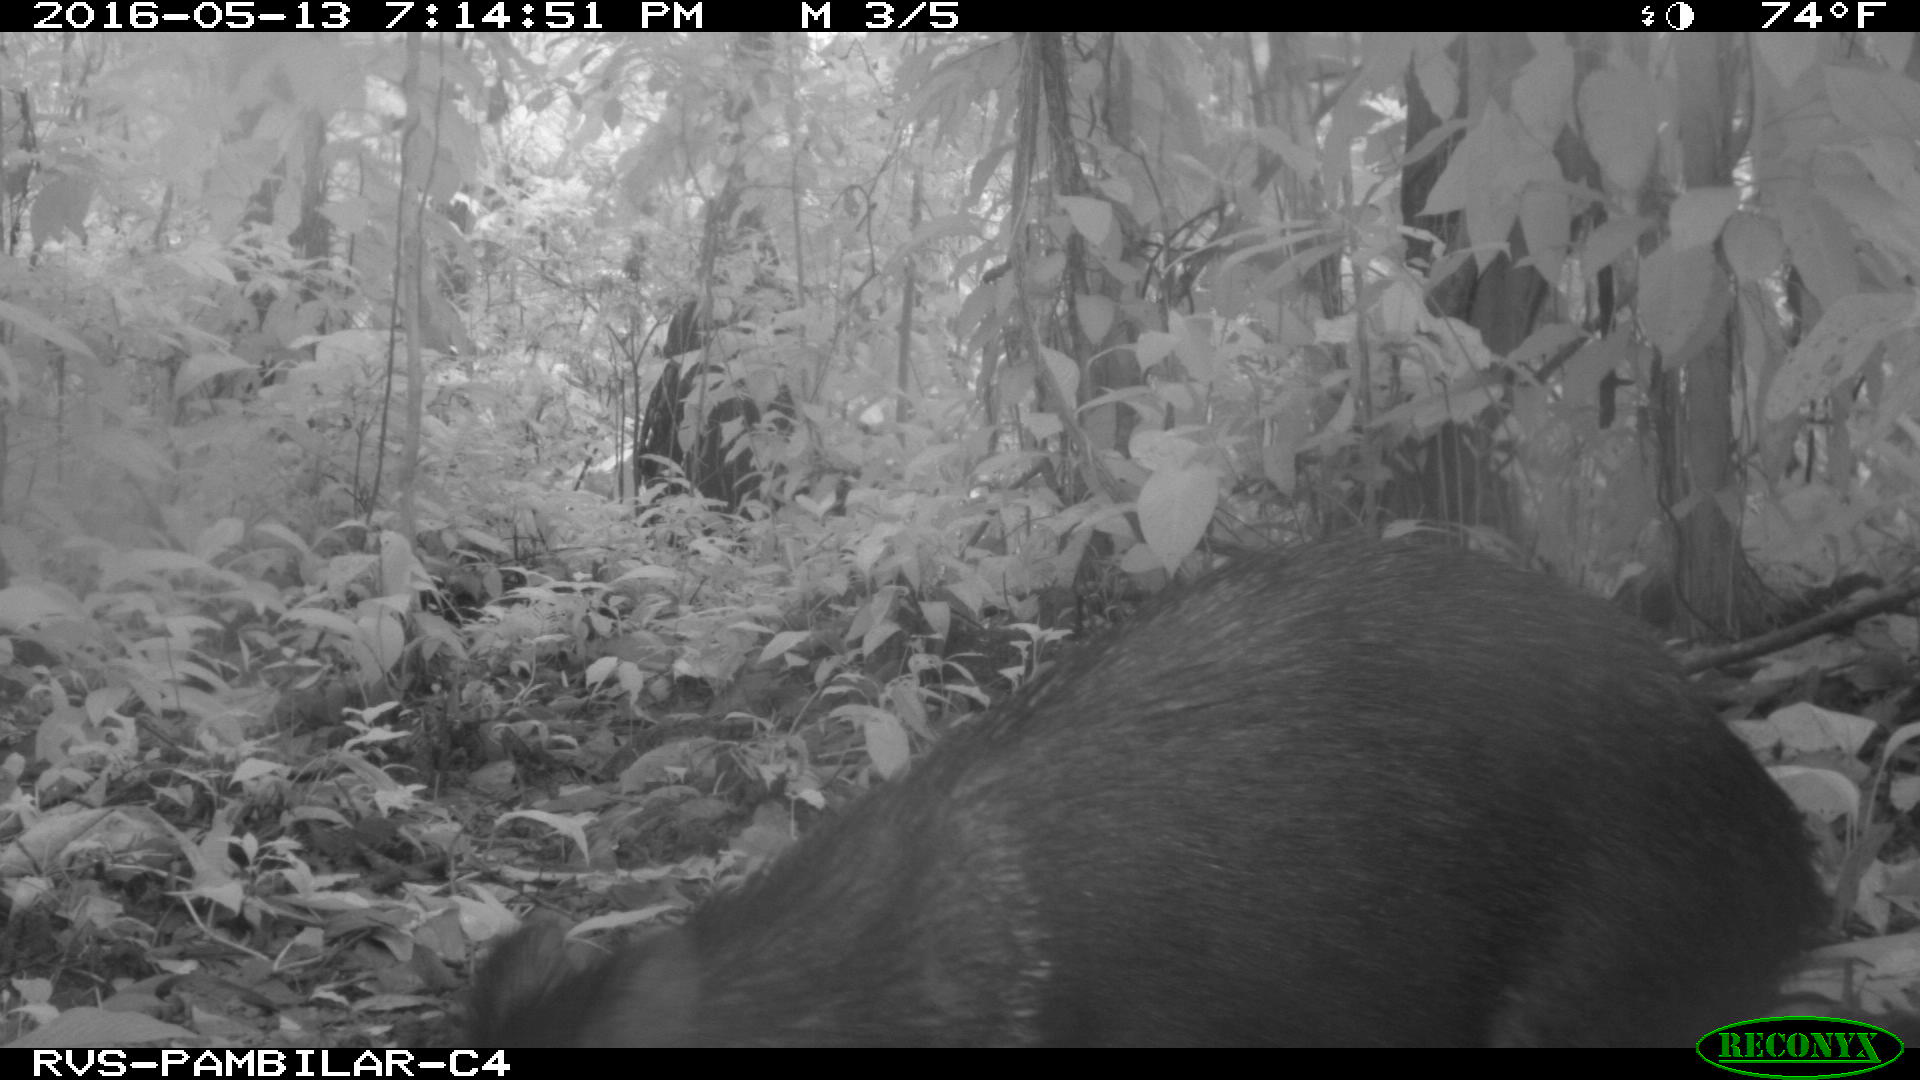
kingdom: Animalia
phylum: Chordata
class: Mammalia
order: Artiodactyla
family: Tayassuidae
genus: Pecari
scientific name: Pecari tajacu
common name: Collared peccary
